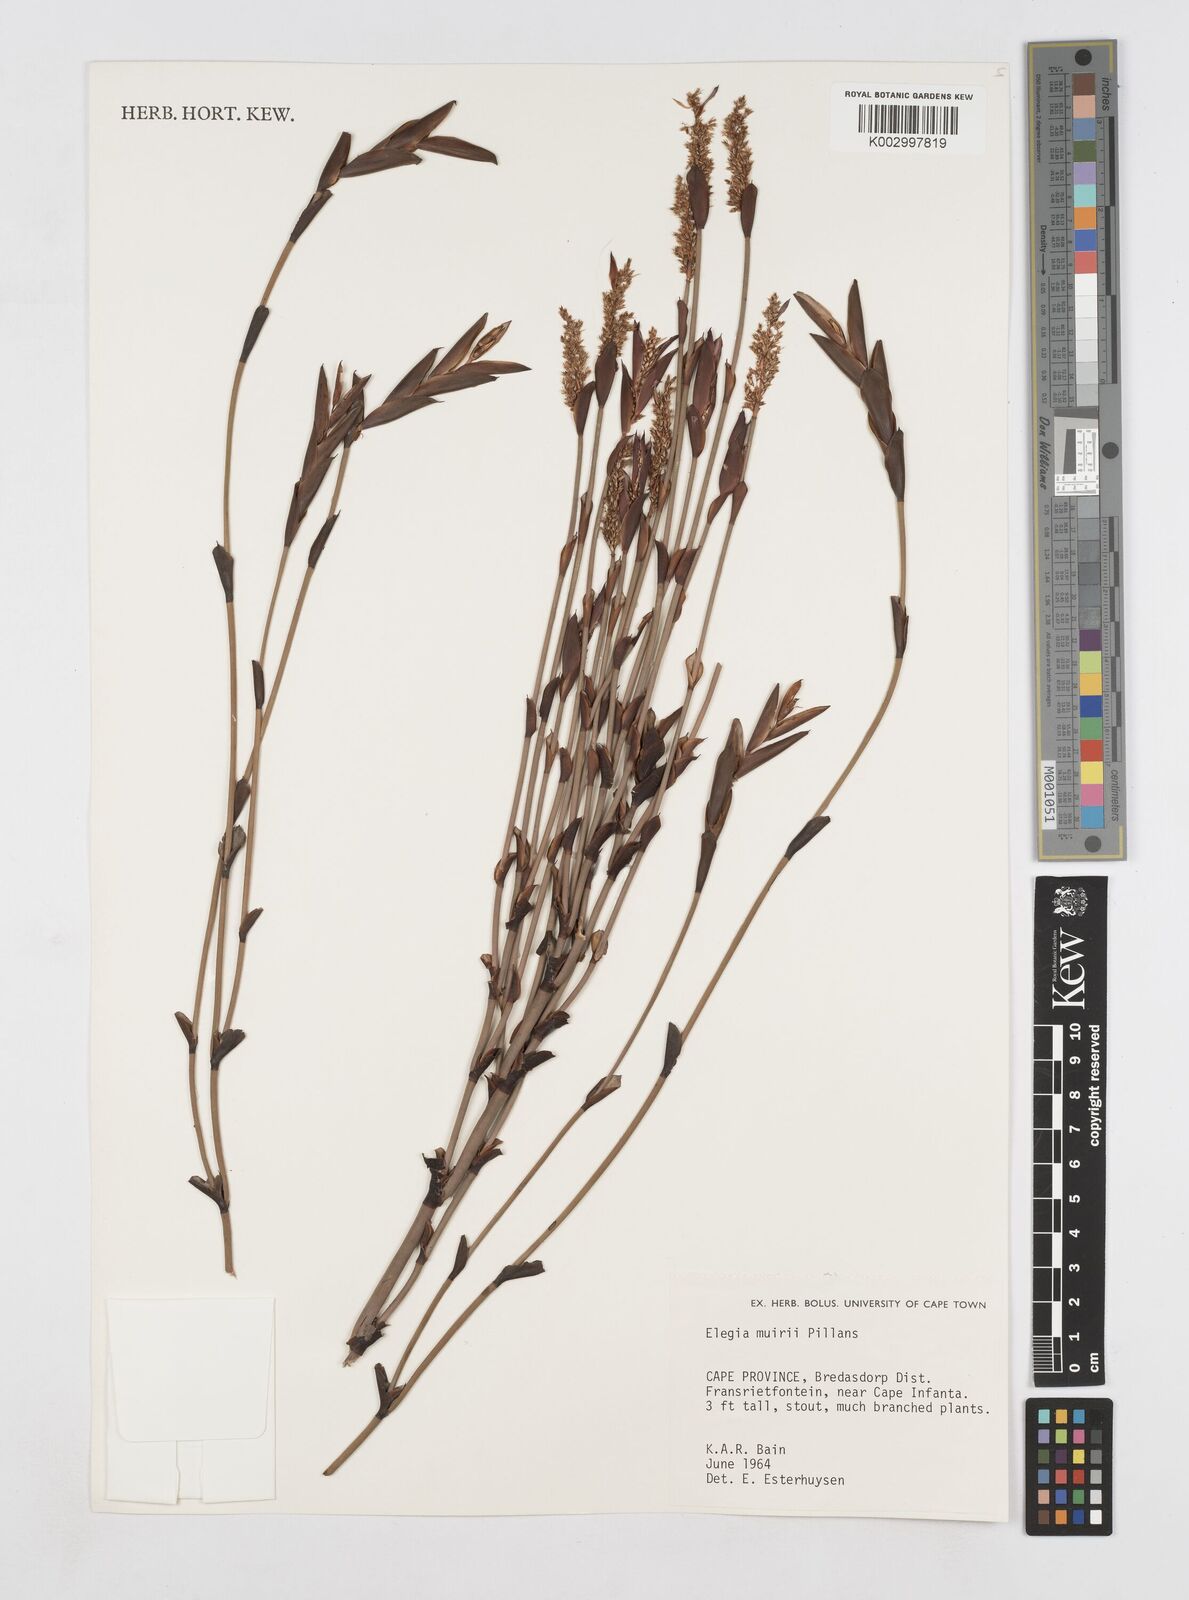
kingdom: Plantae
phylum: Tracheophyta
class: Liliopsida
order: Poales
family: Restionaceae
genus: Elegia
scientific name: Elegia muirii
